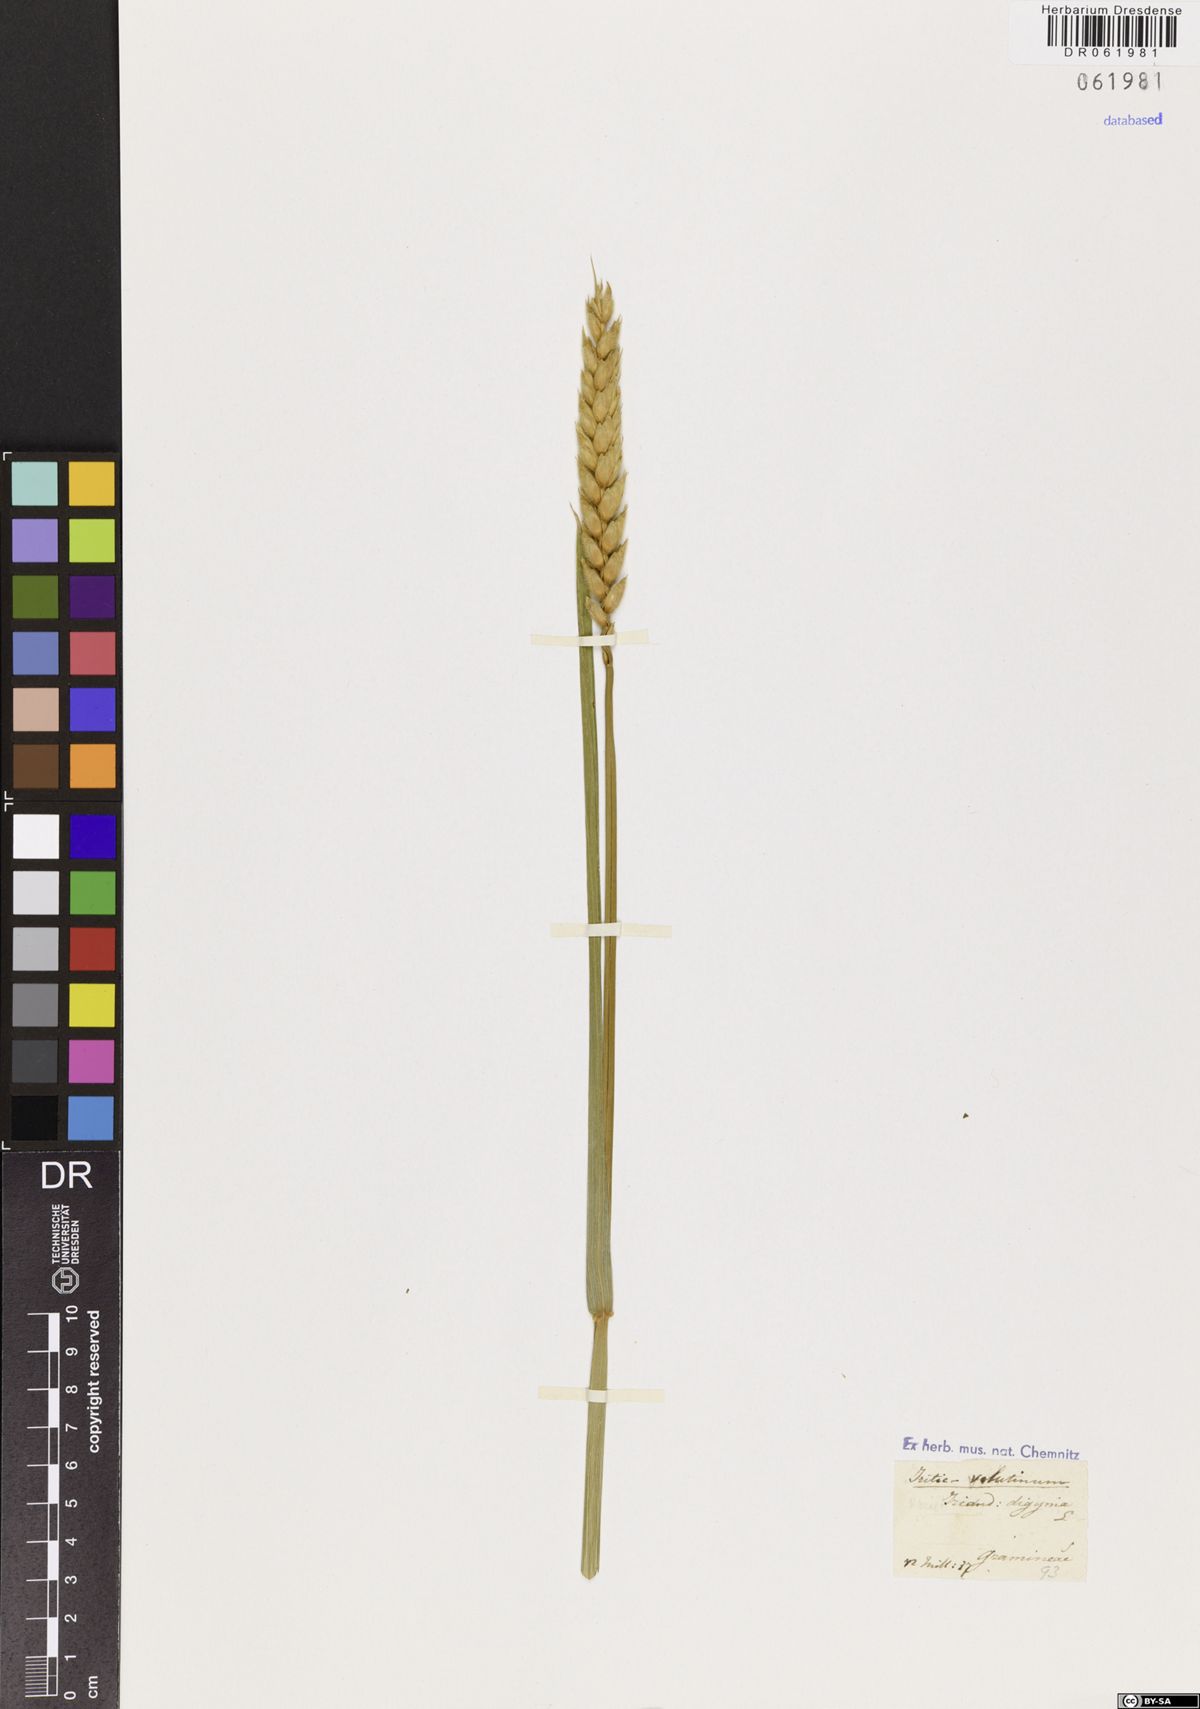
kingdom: Plantae
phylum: Tracheophyta
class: Liliopsida
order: Poales
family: Poaceae
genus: Triticum
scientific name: Triticum
